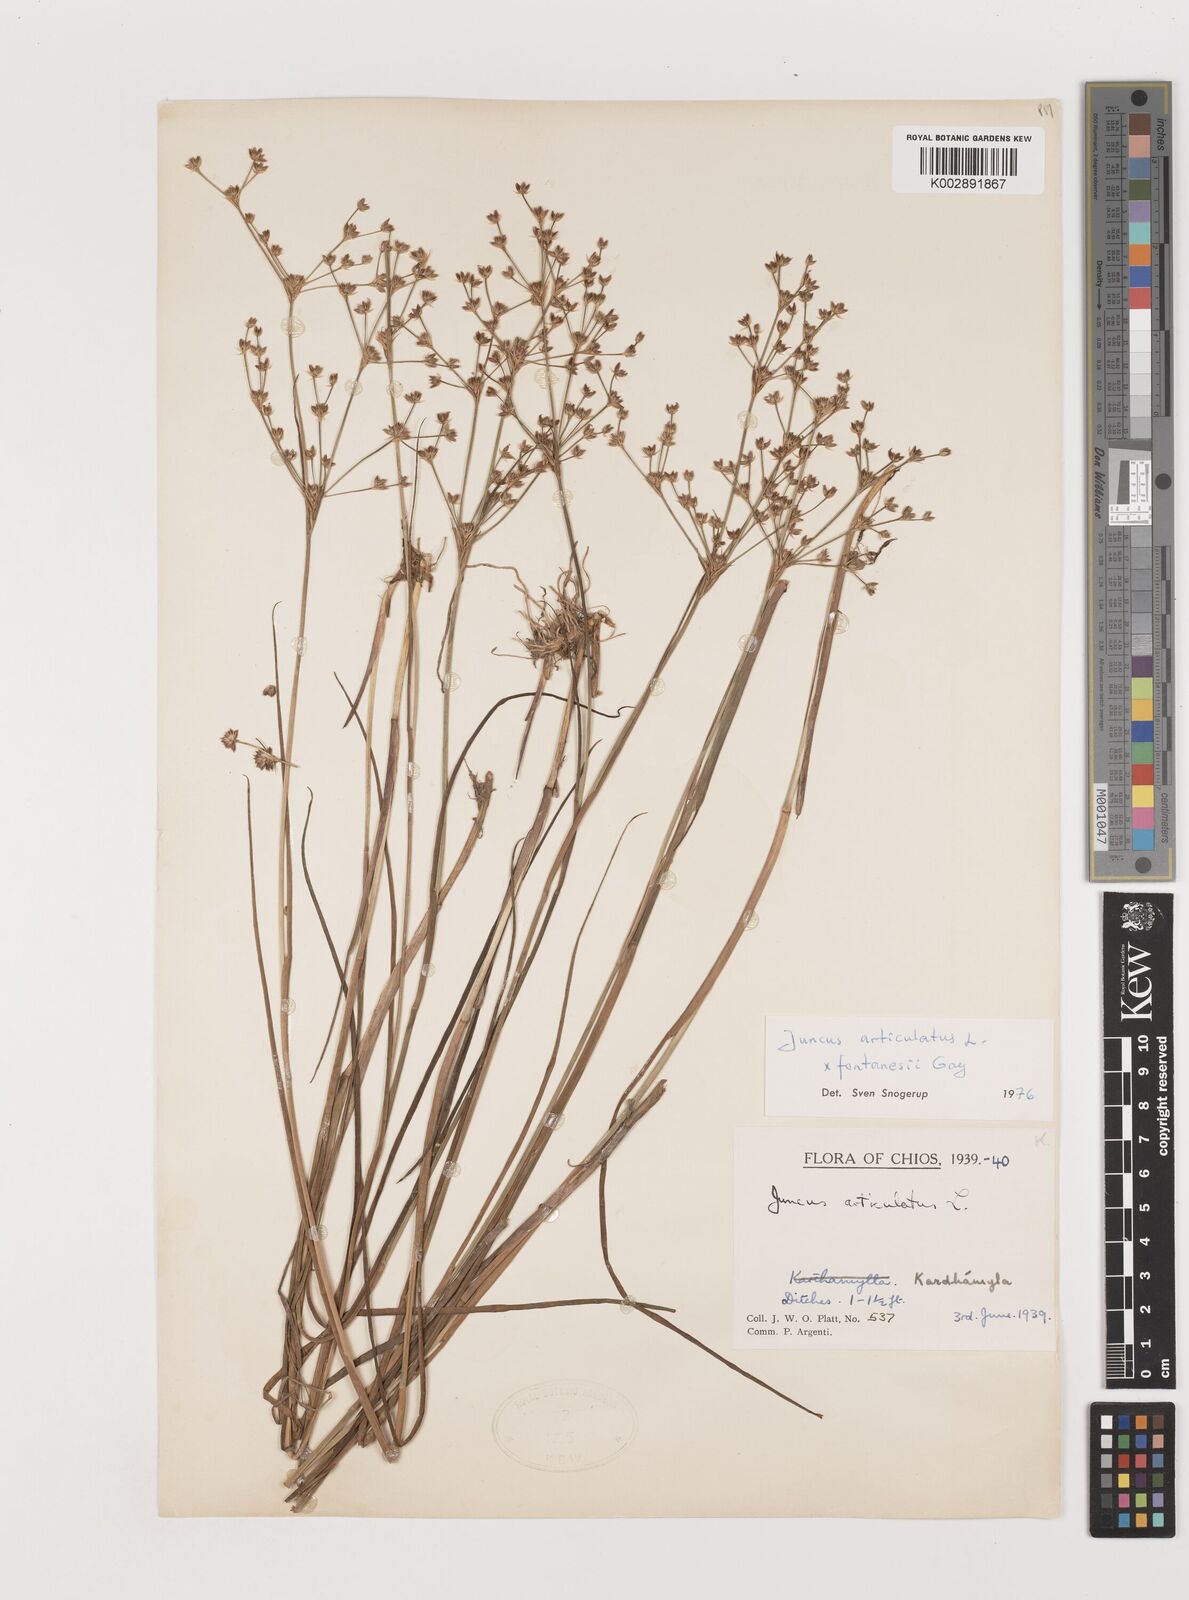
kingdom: Plantae
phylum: Tracheophyta
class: Liliopsida
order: Poales
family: Juncaceae
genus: Juncus
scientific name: Juncus articulatus
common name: Jointed rush
